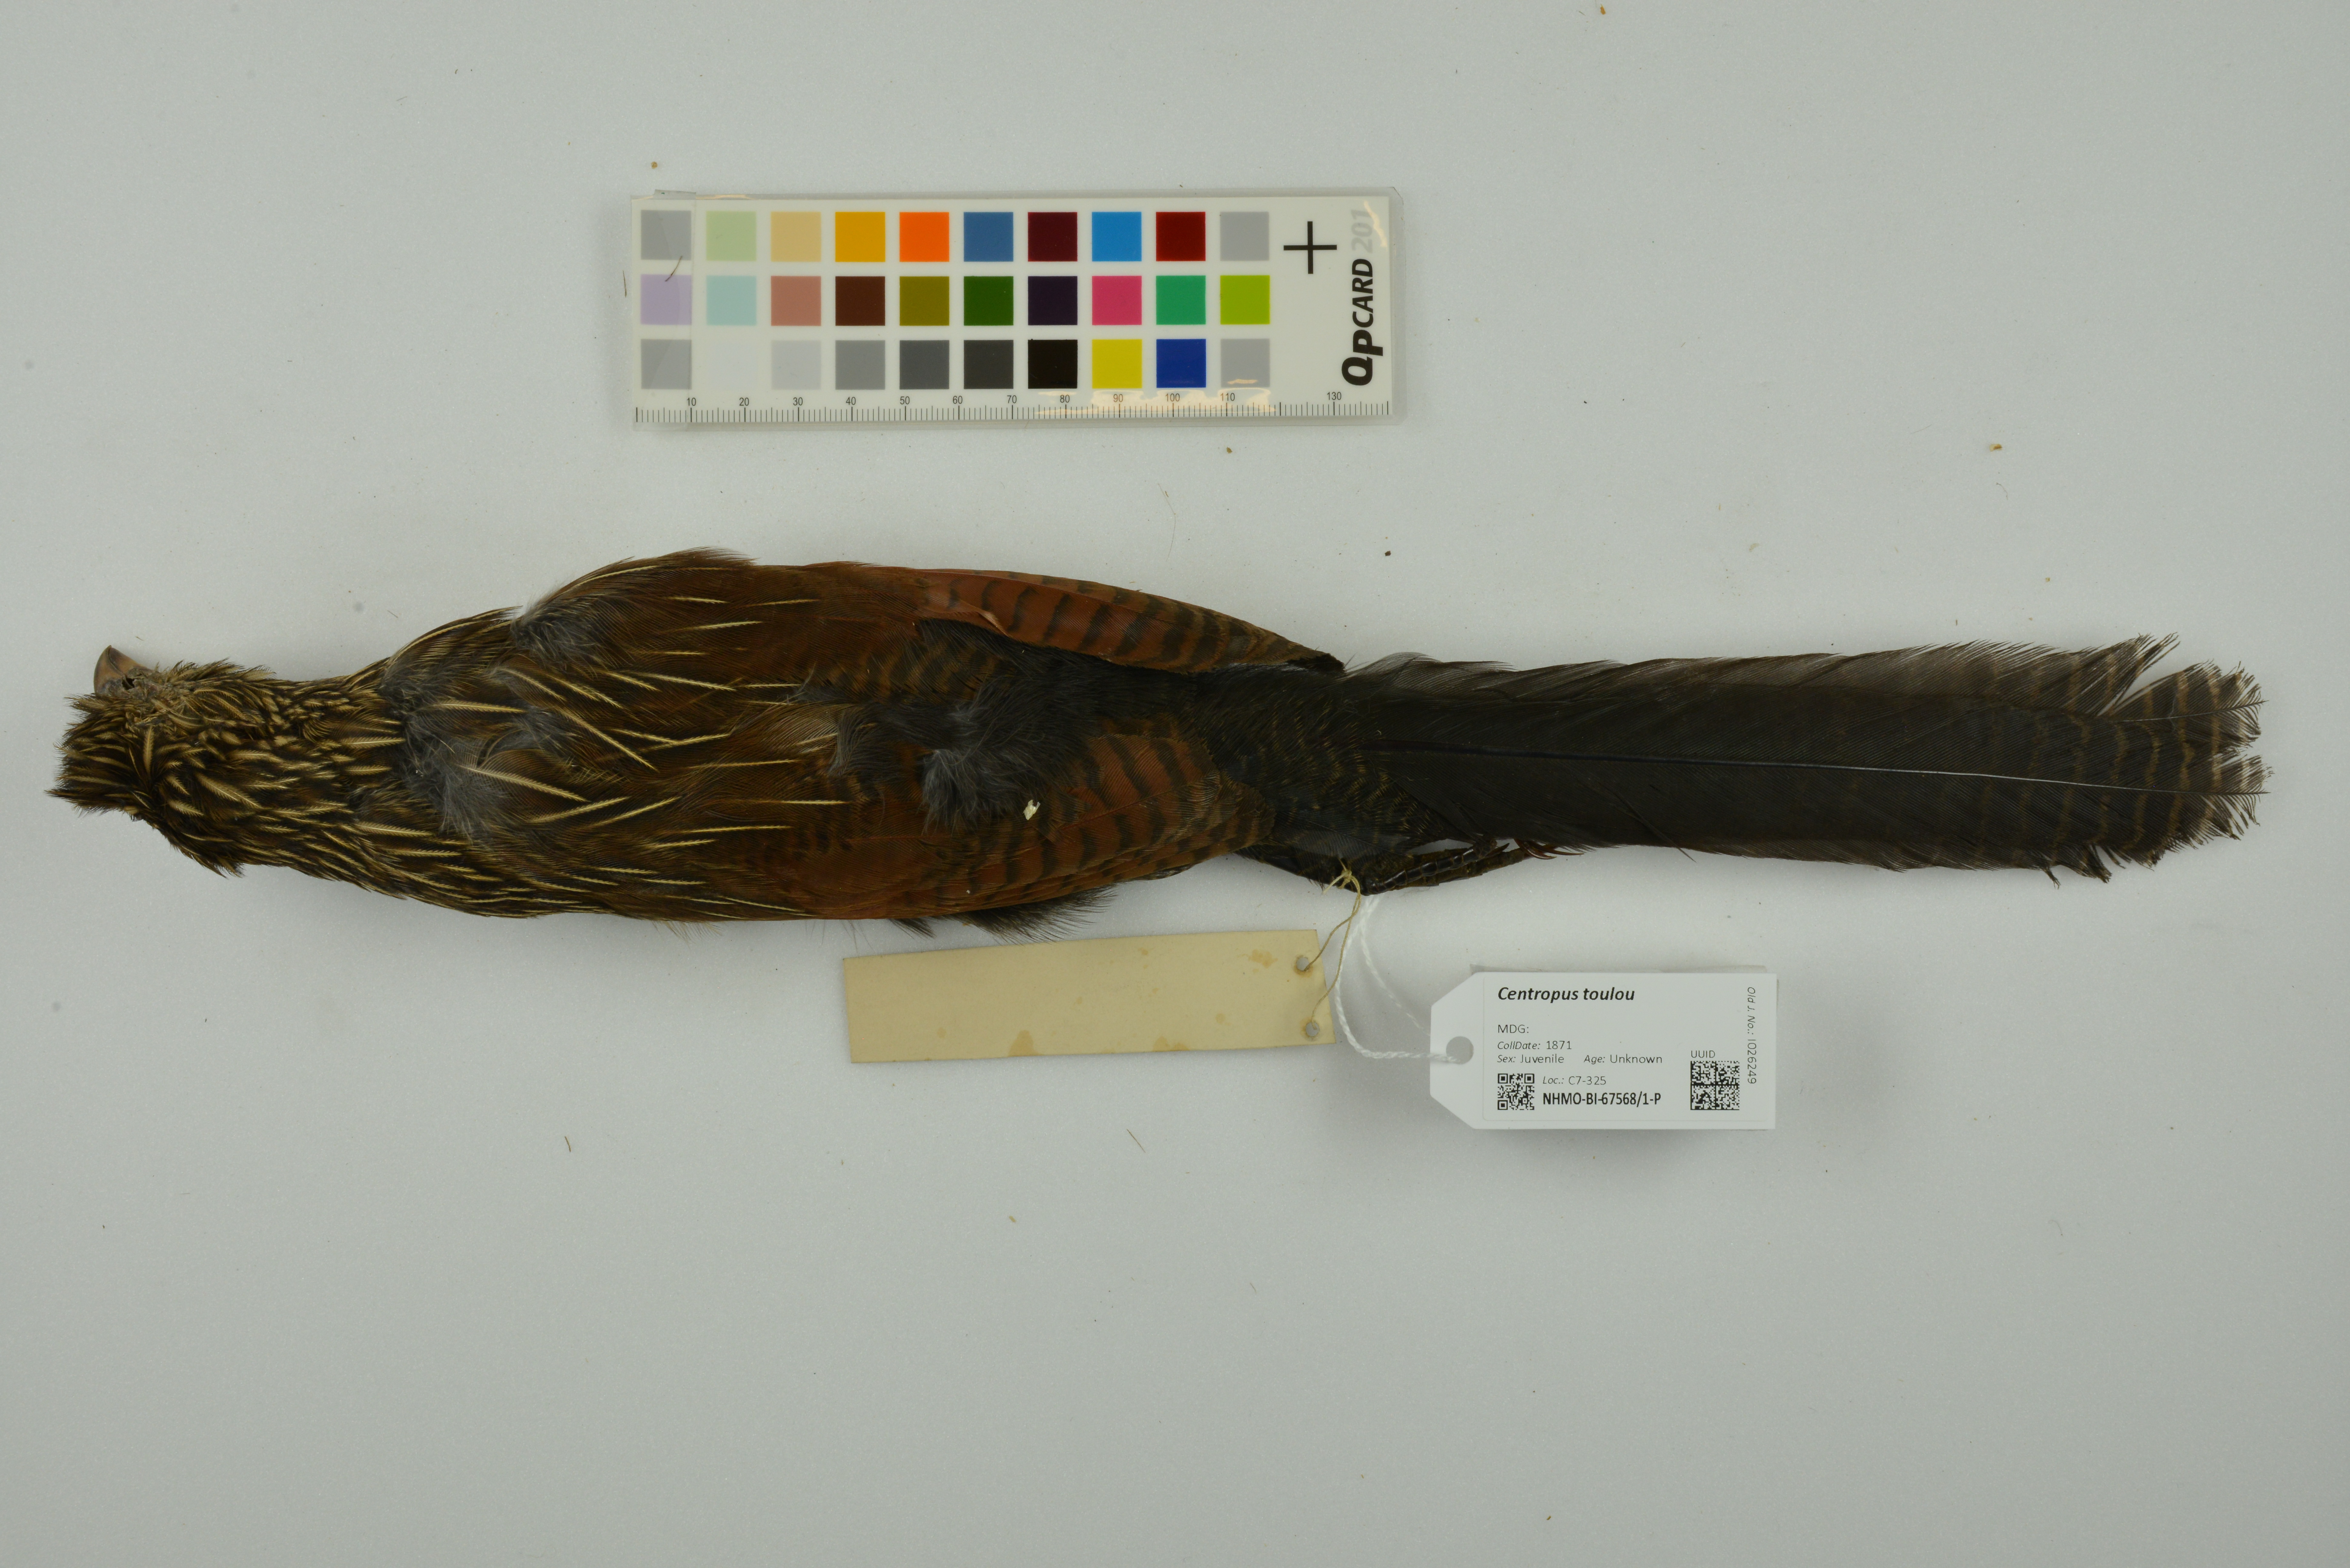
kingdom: Animalia
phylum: Chordata
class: Aves
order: Cuculiformes
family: Cuculidae
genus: Centropus
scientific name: Centropus toulou
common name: Malagasy coucal
